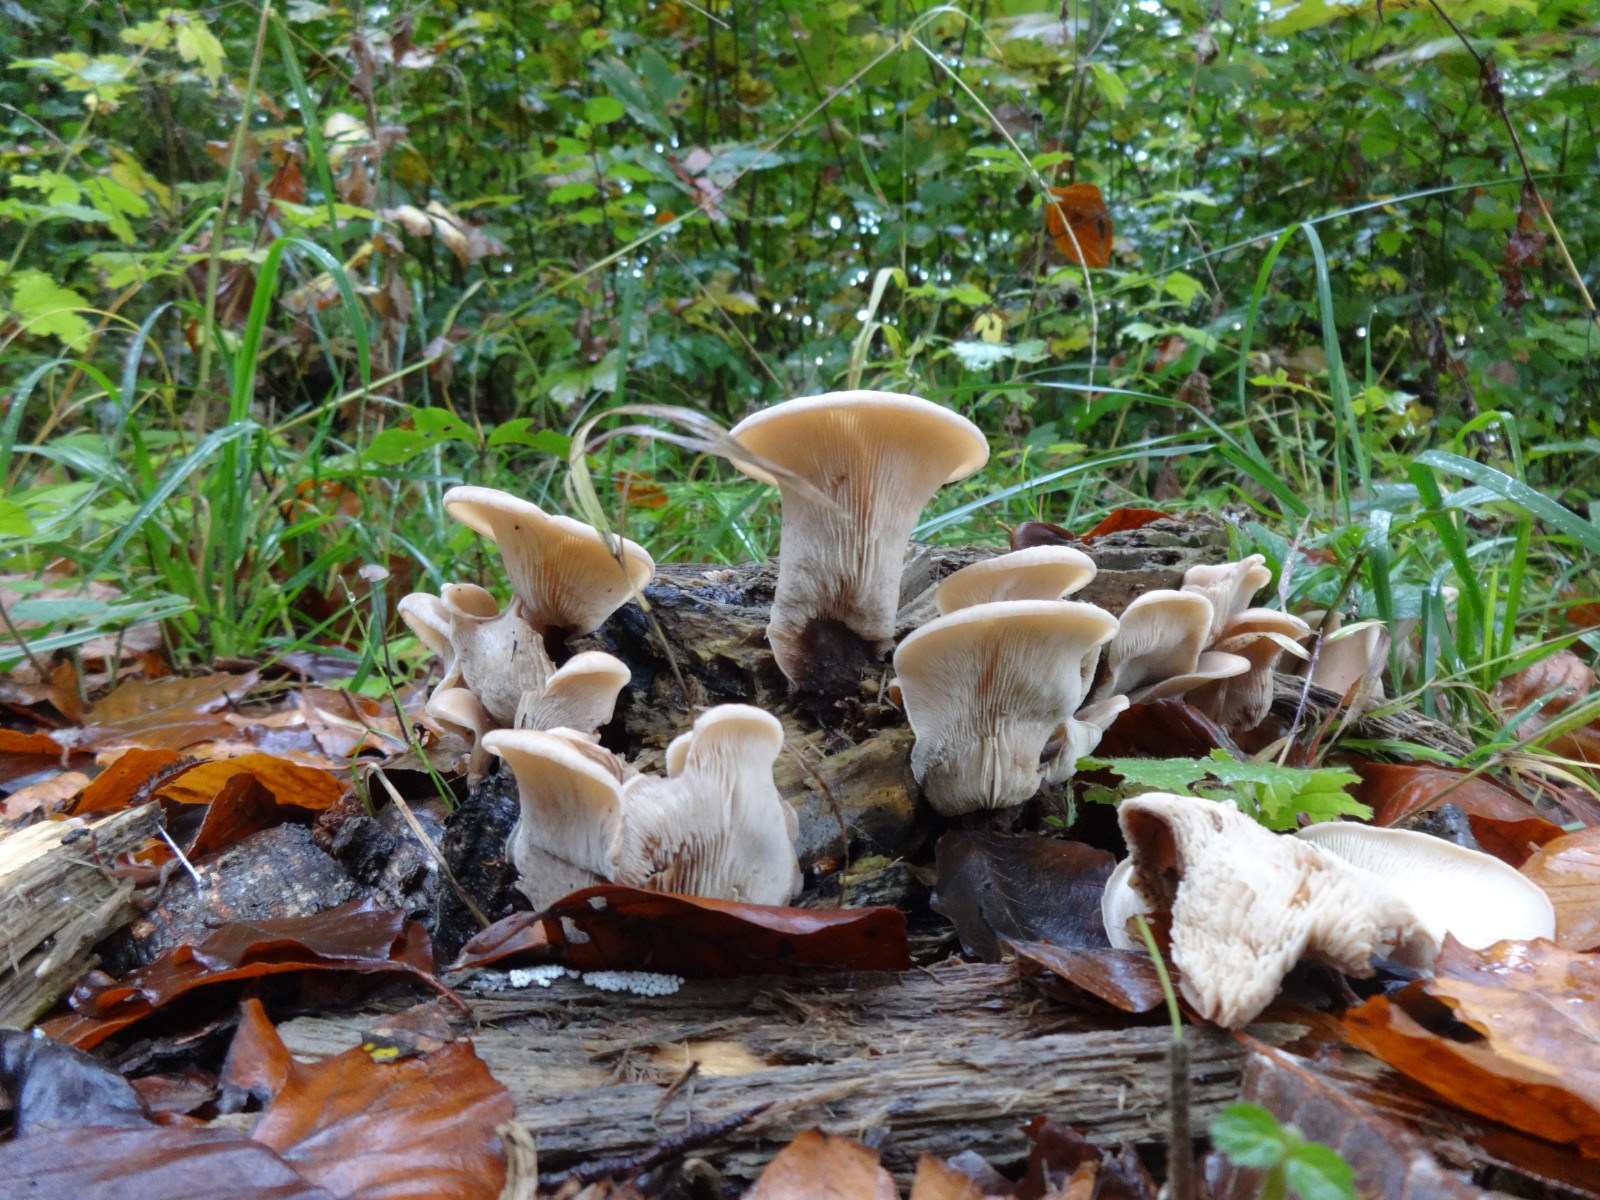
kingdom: Fungi
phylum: Basidiomycota
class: Agaricomycetes
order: Russulales
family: Auriscalpiaceae
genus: Lentinellus
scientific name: Lentinellus
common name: savbladhat
